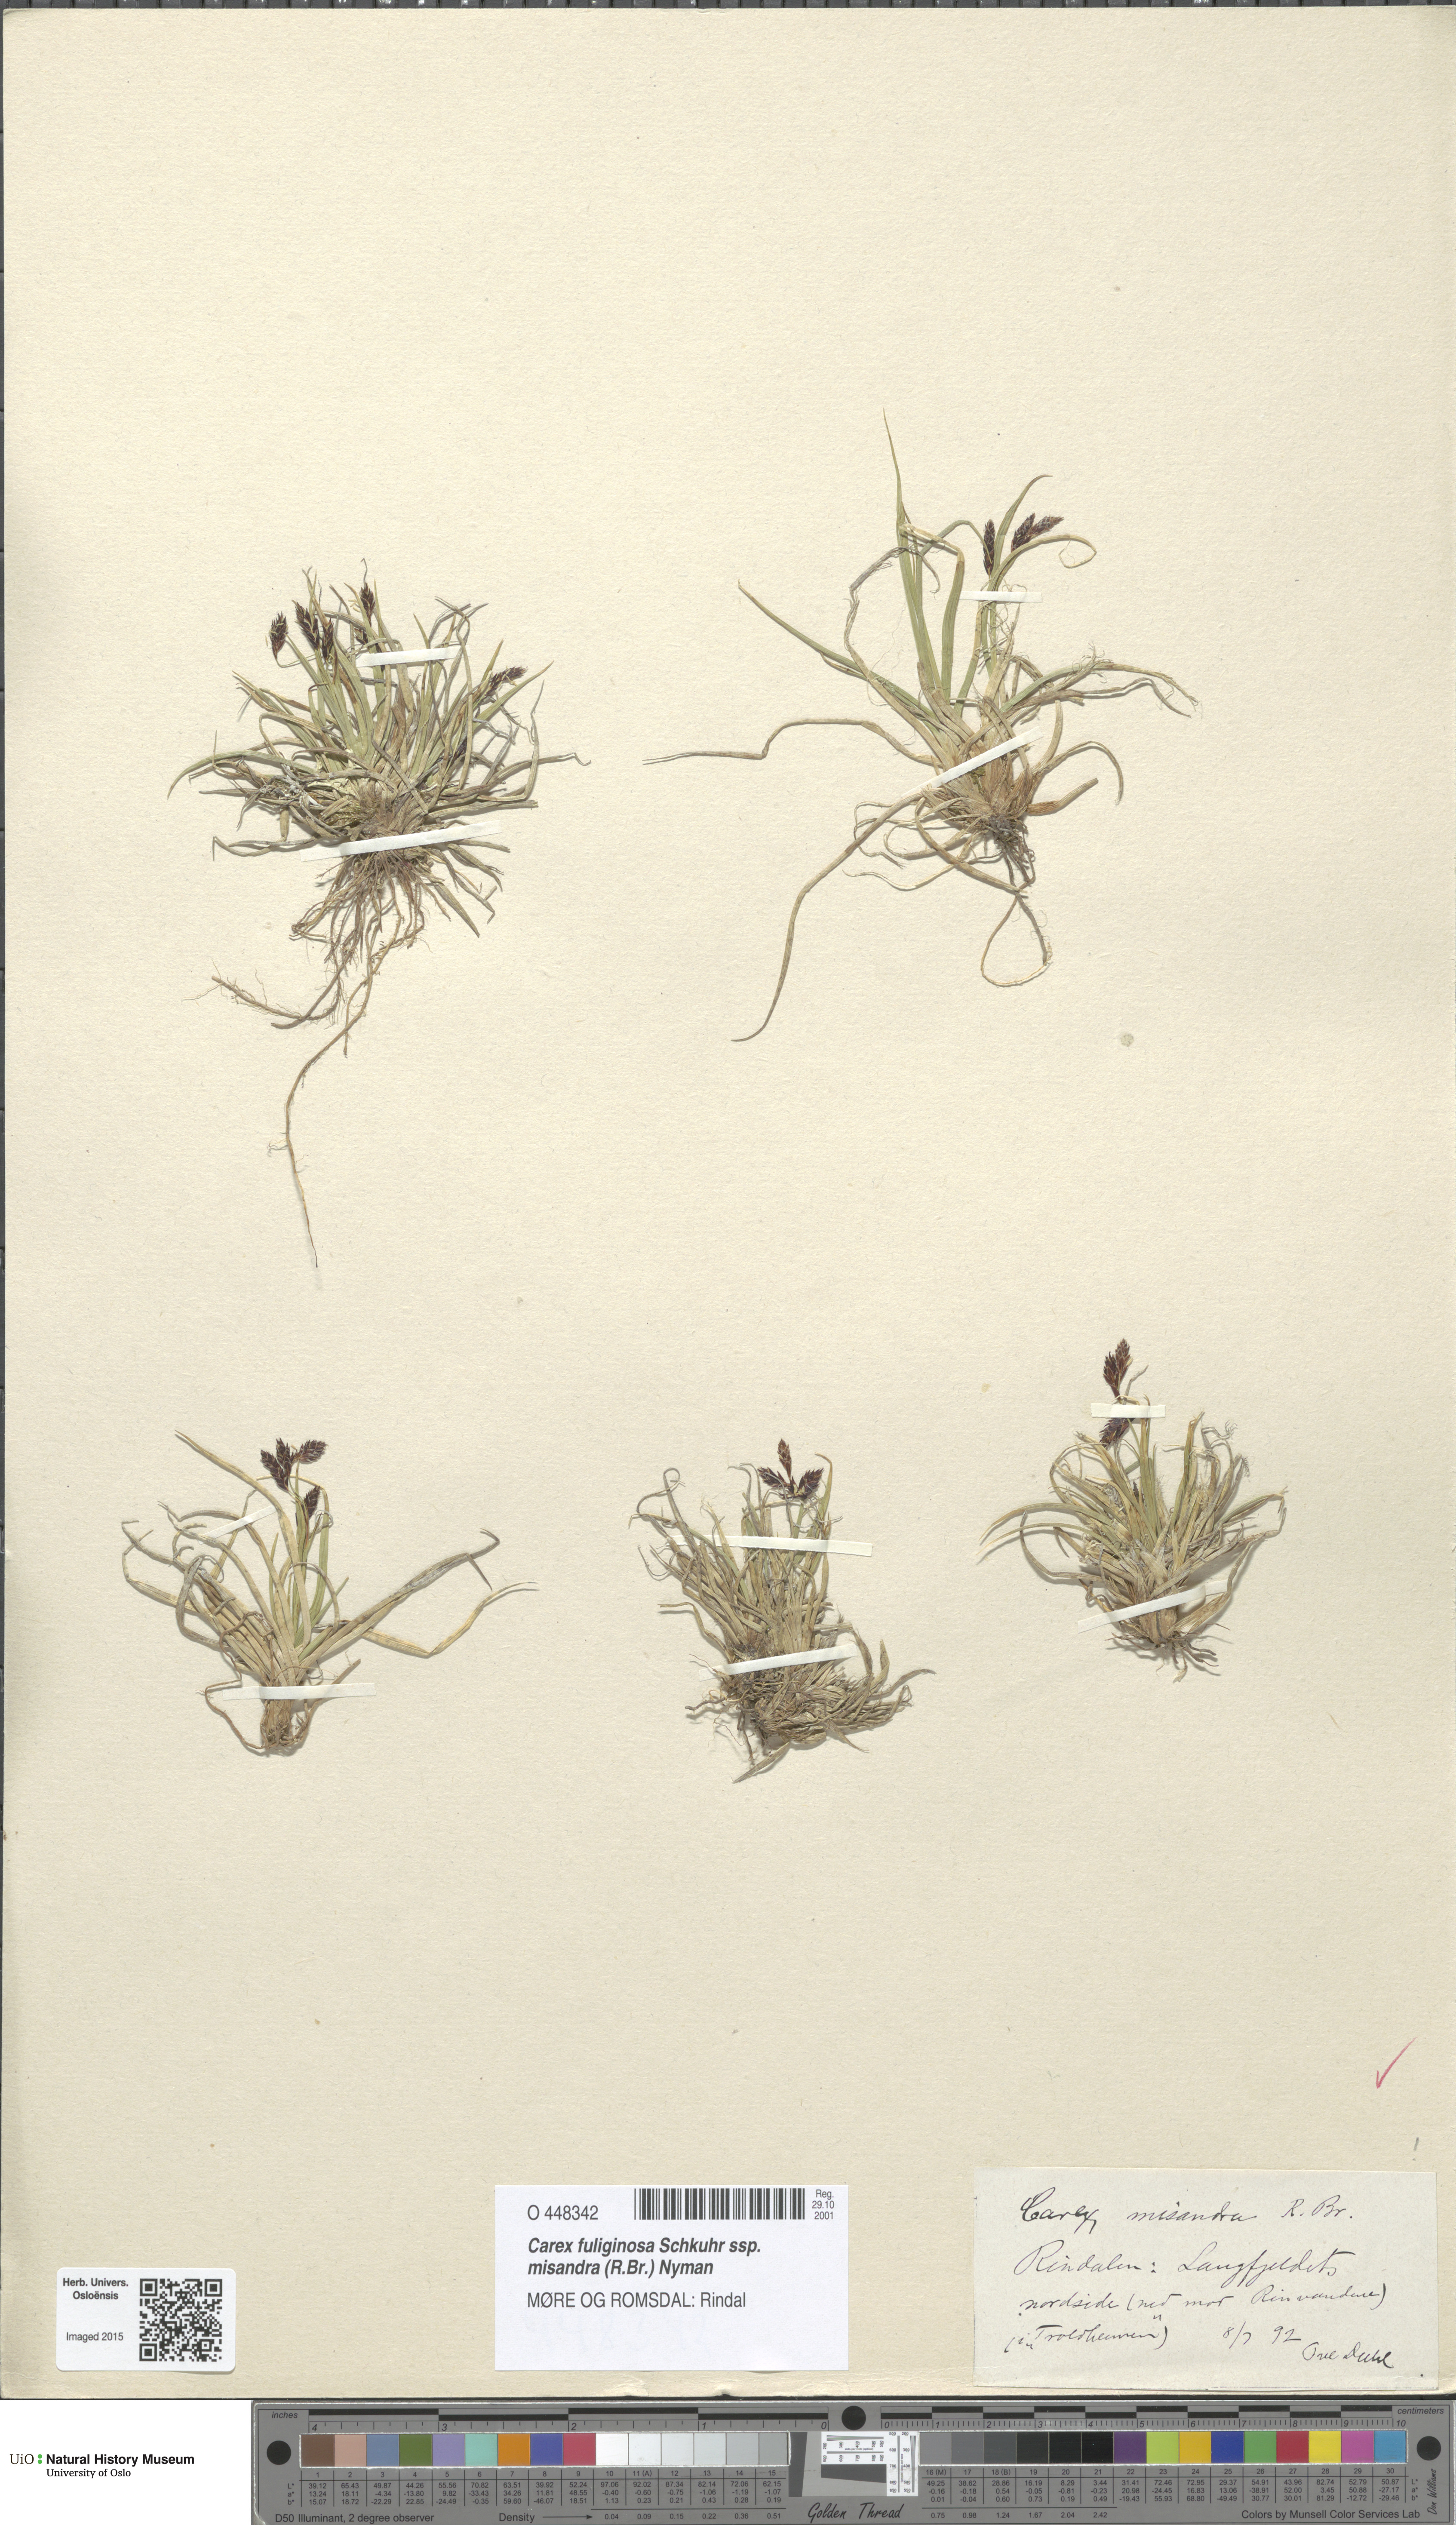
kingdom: Plantae
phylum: Tracheophyta
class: Liliopsida
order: Poales
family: Cyperaceae
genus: Carex
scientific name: Carex fuliginosa
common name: Few-flowered sedge
